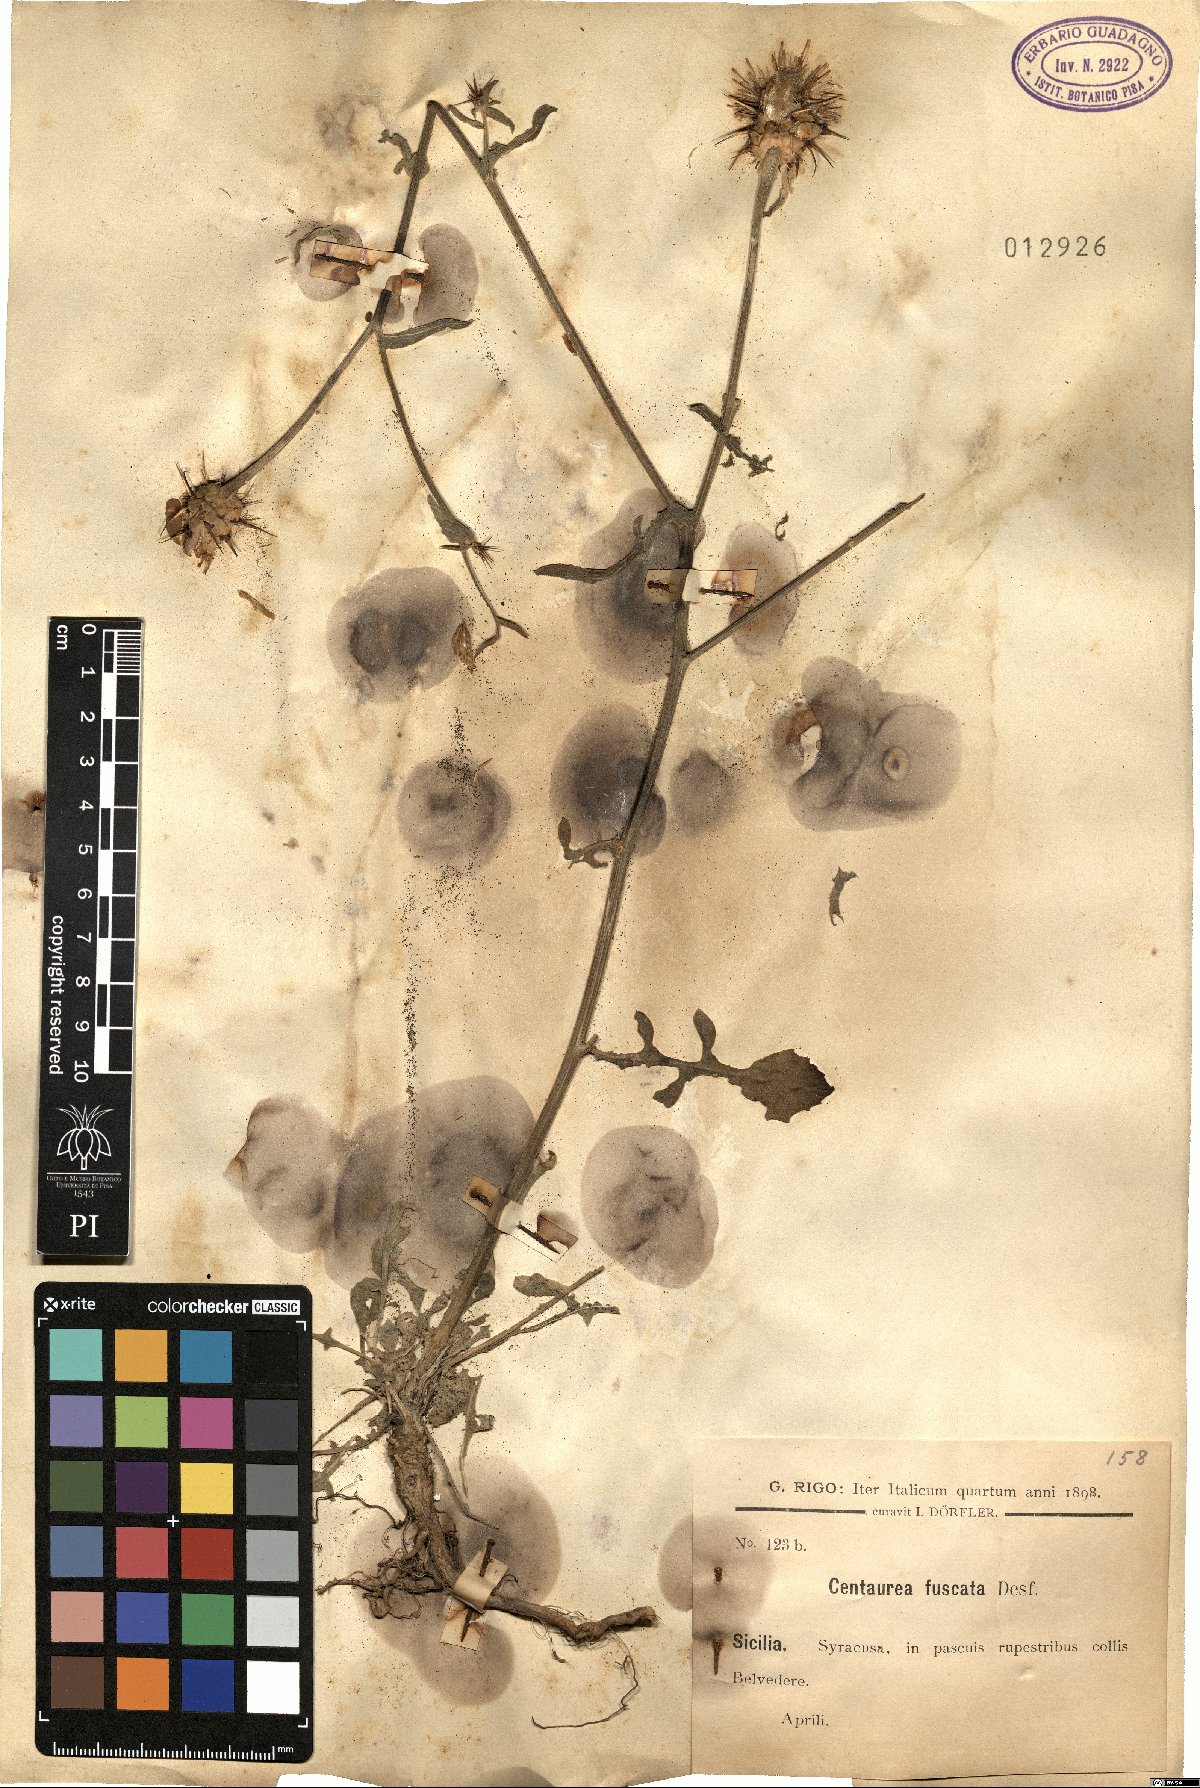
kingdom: Plantae
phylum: Tracheophyta
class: Magnoliopsida
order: Asterales
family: Asteraceae
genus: Centaurea
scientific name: Centaurea sicula
